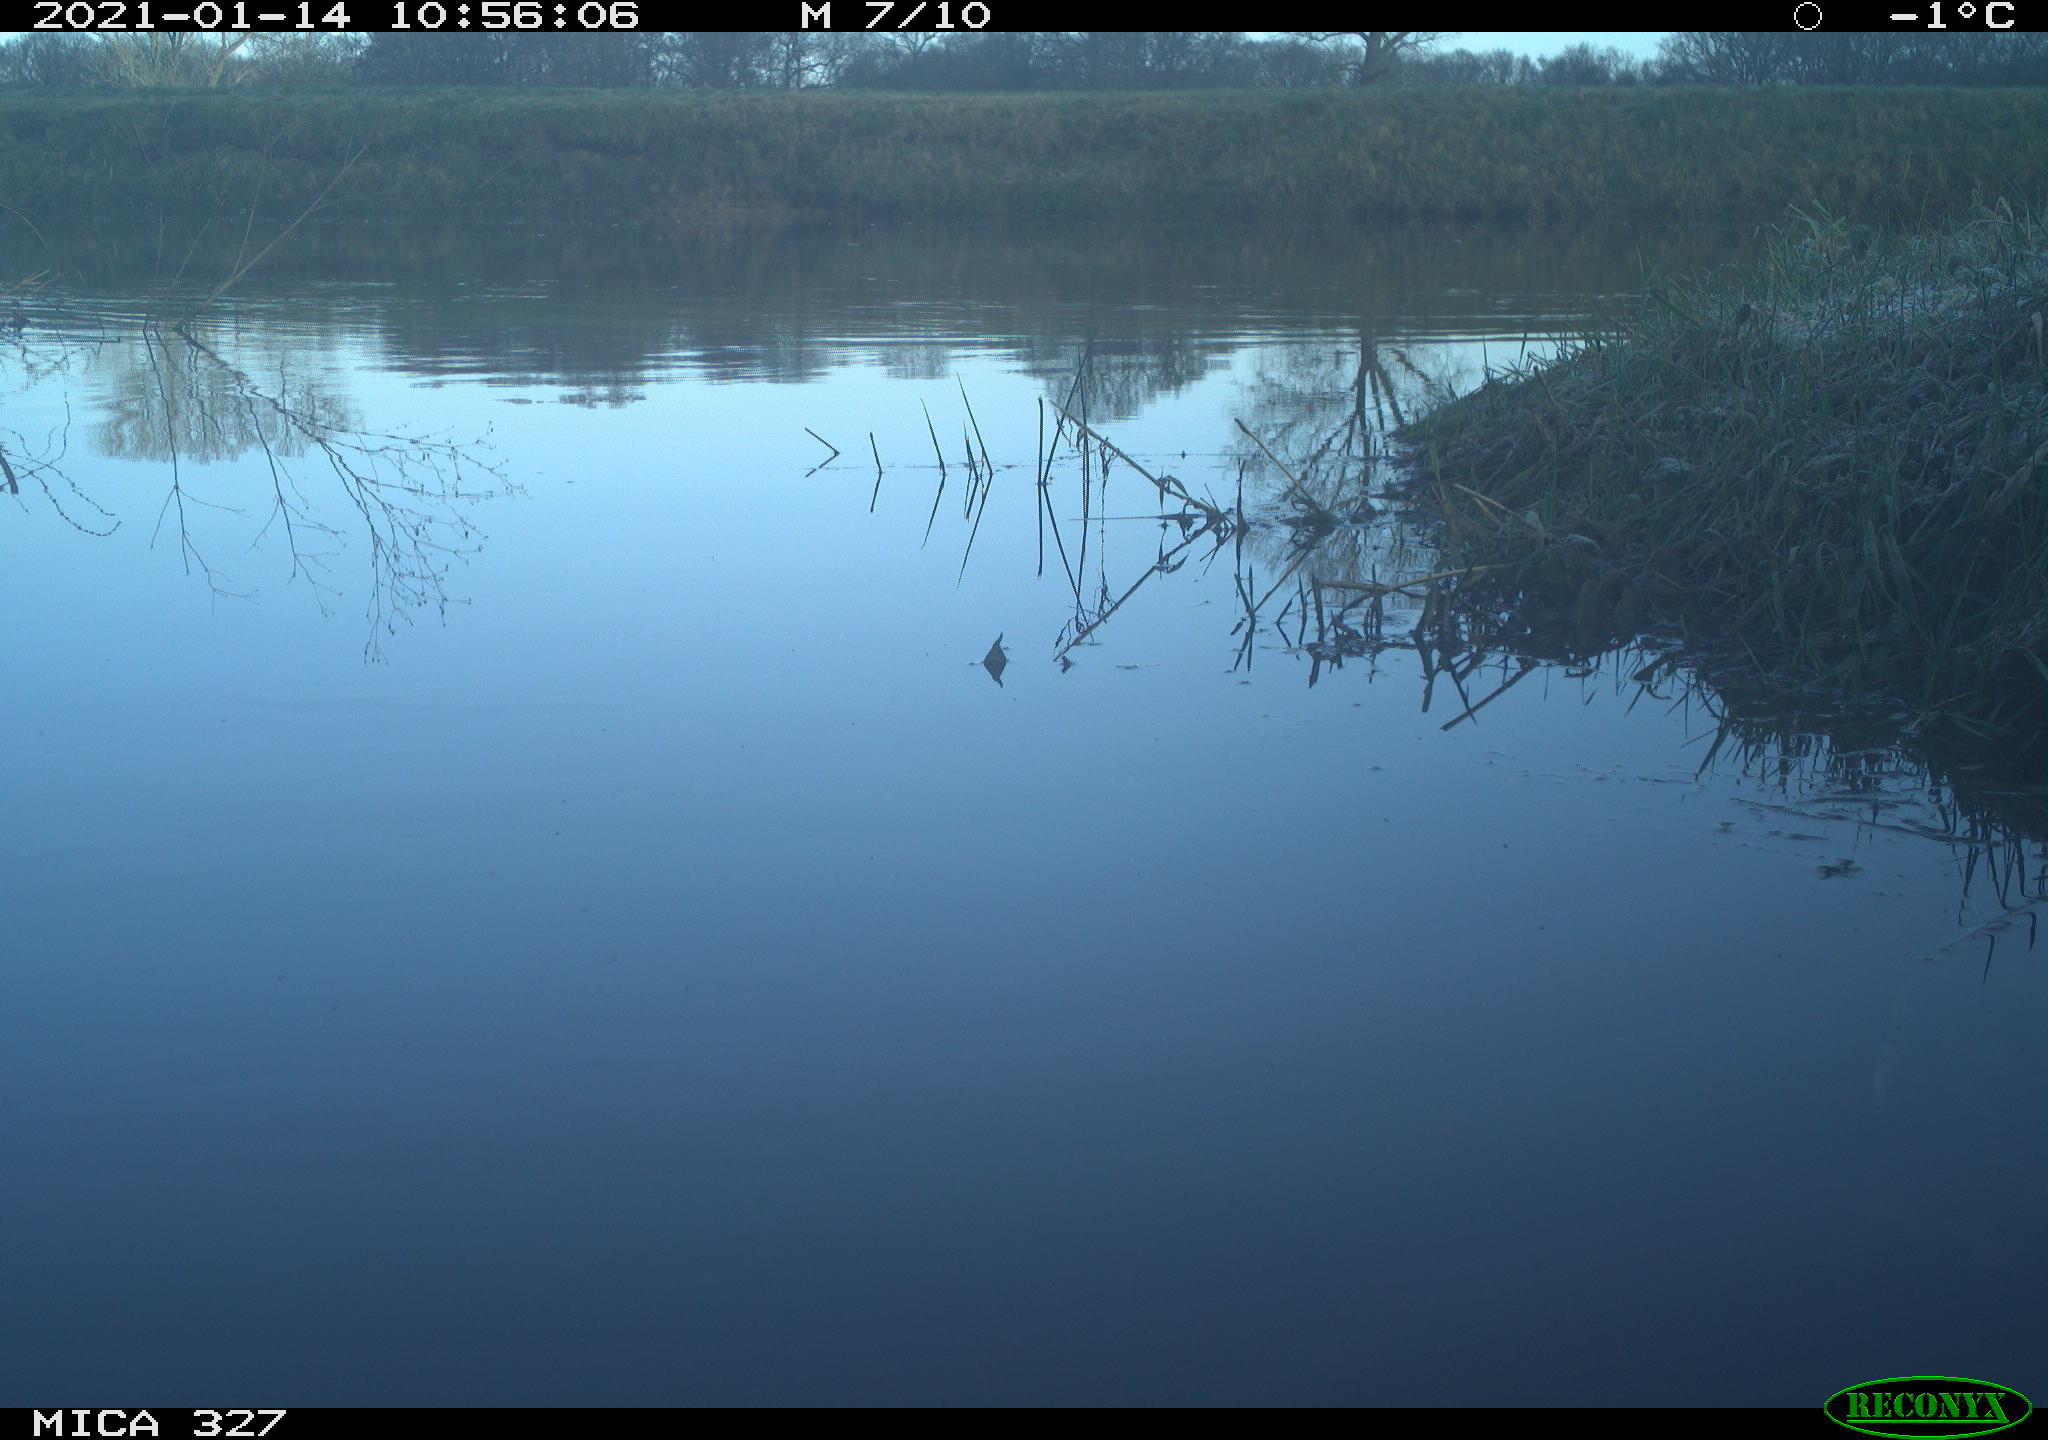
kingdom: Animalia
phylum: Chordata
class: Aves
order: Pelecaniformes
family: Ardeidae
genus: Ardea
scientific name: Ardea cinerea
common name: Grey heron
